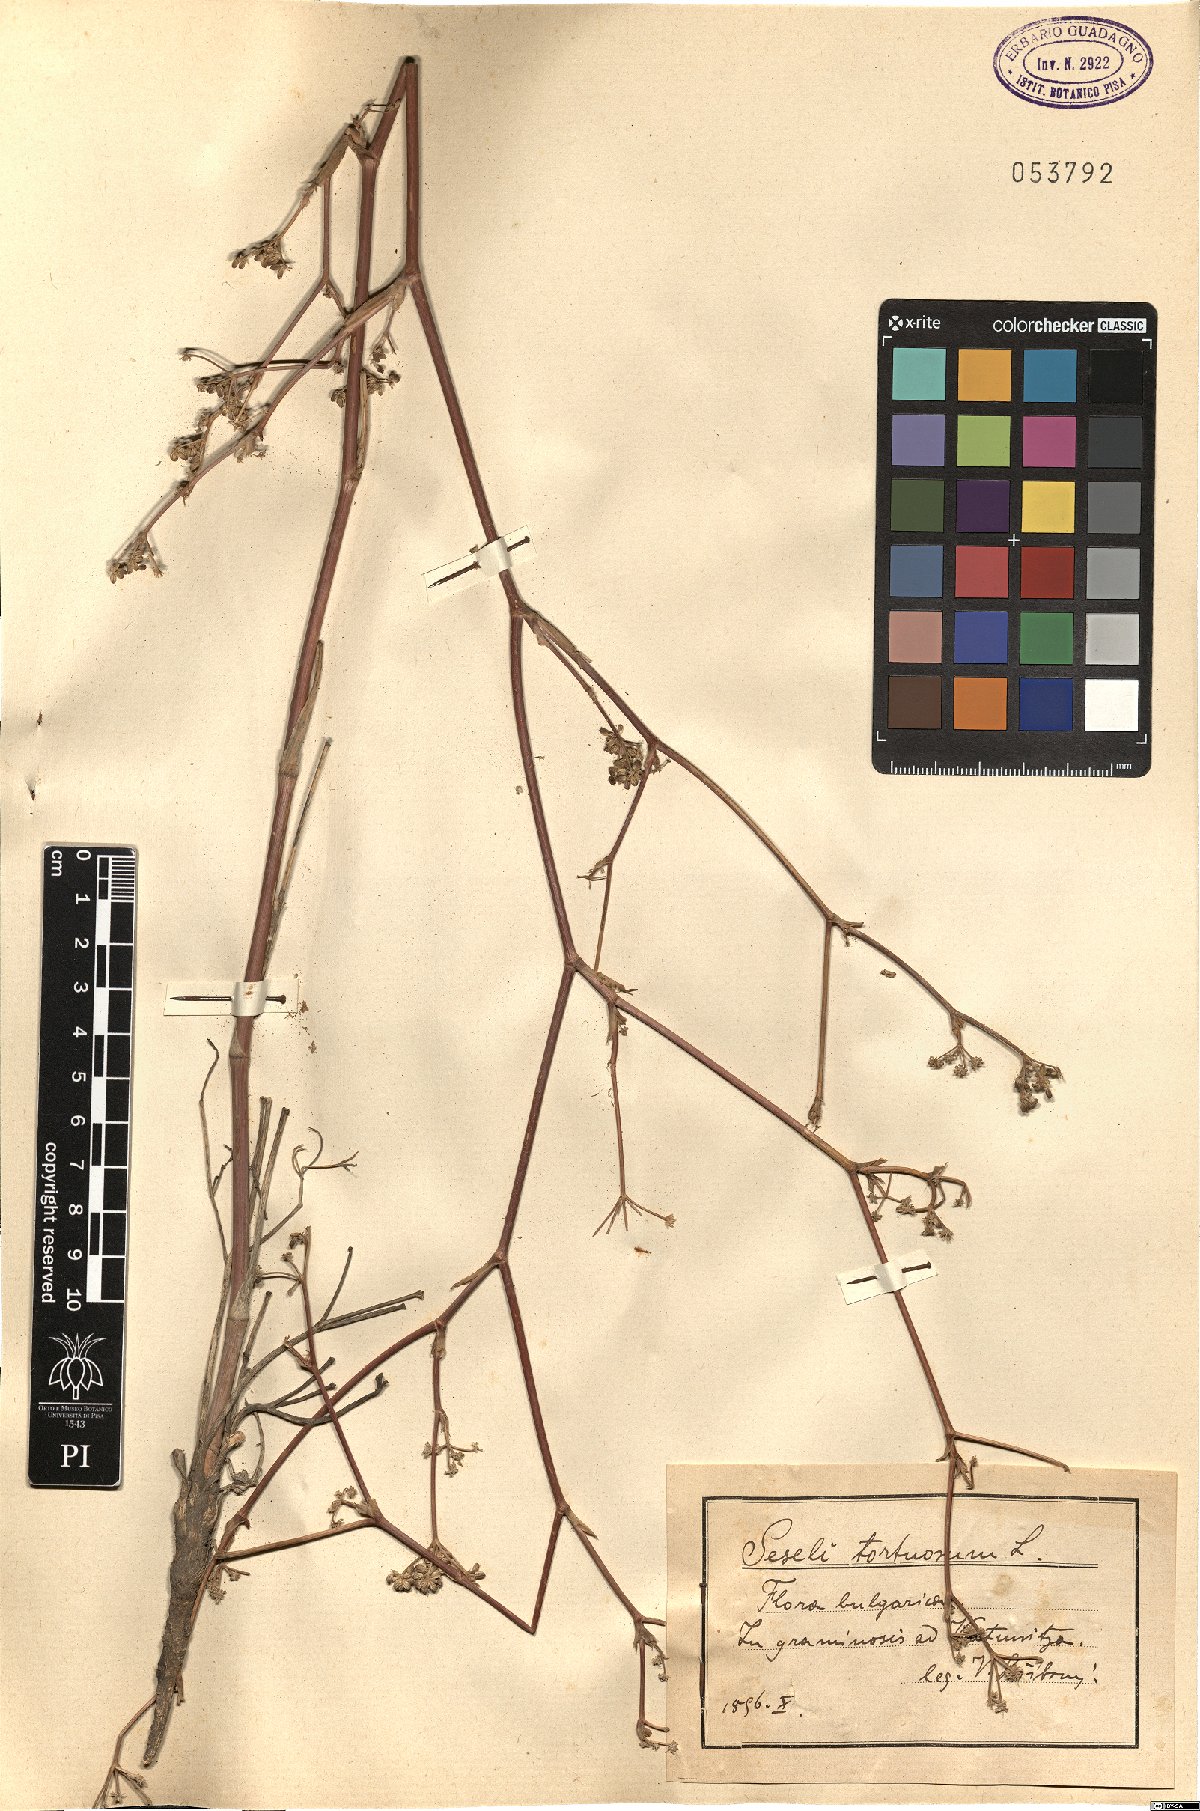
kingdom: Plantae
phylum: Tracheophyta
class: Magnoliopsida
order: Apiales
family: Apiaceae
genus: Seseli
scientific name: Seseli tortuosum
